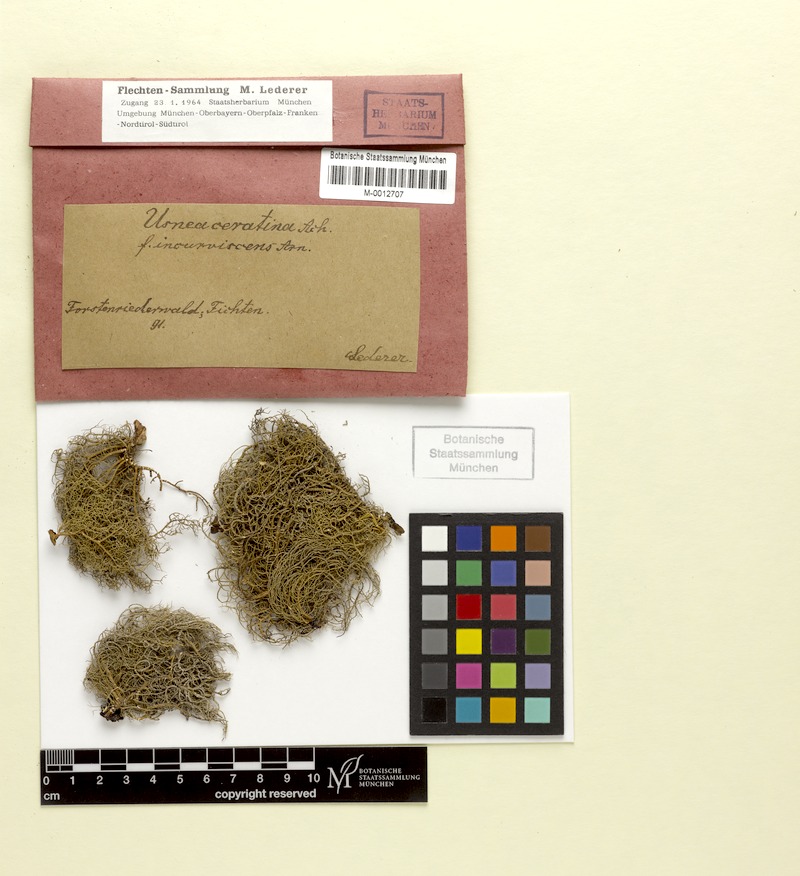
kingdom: Fungi
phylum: Ascomycota
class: Lecanoromycetes
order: Lecanorales
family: Parmeliaceae
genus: Usnea
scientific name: Usnea ceratina
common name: Warty beard lichen
